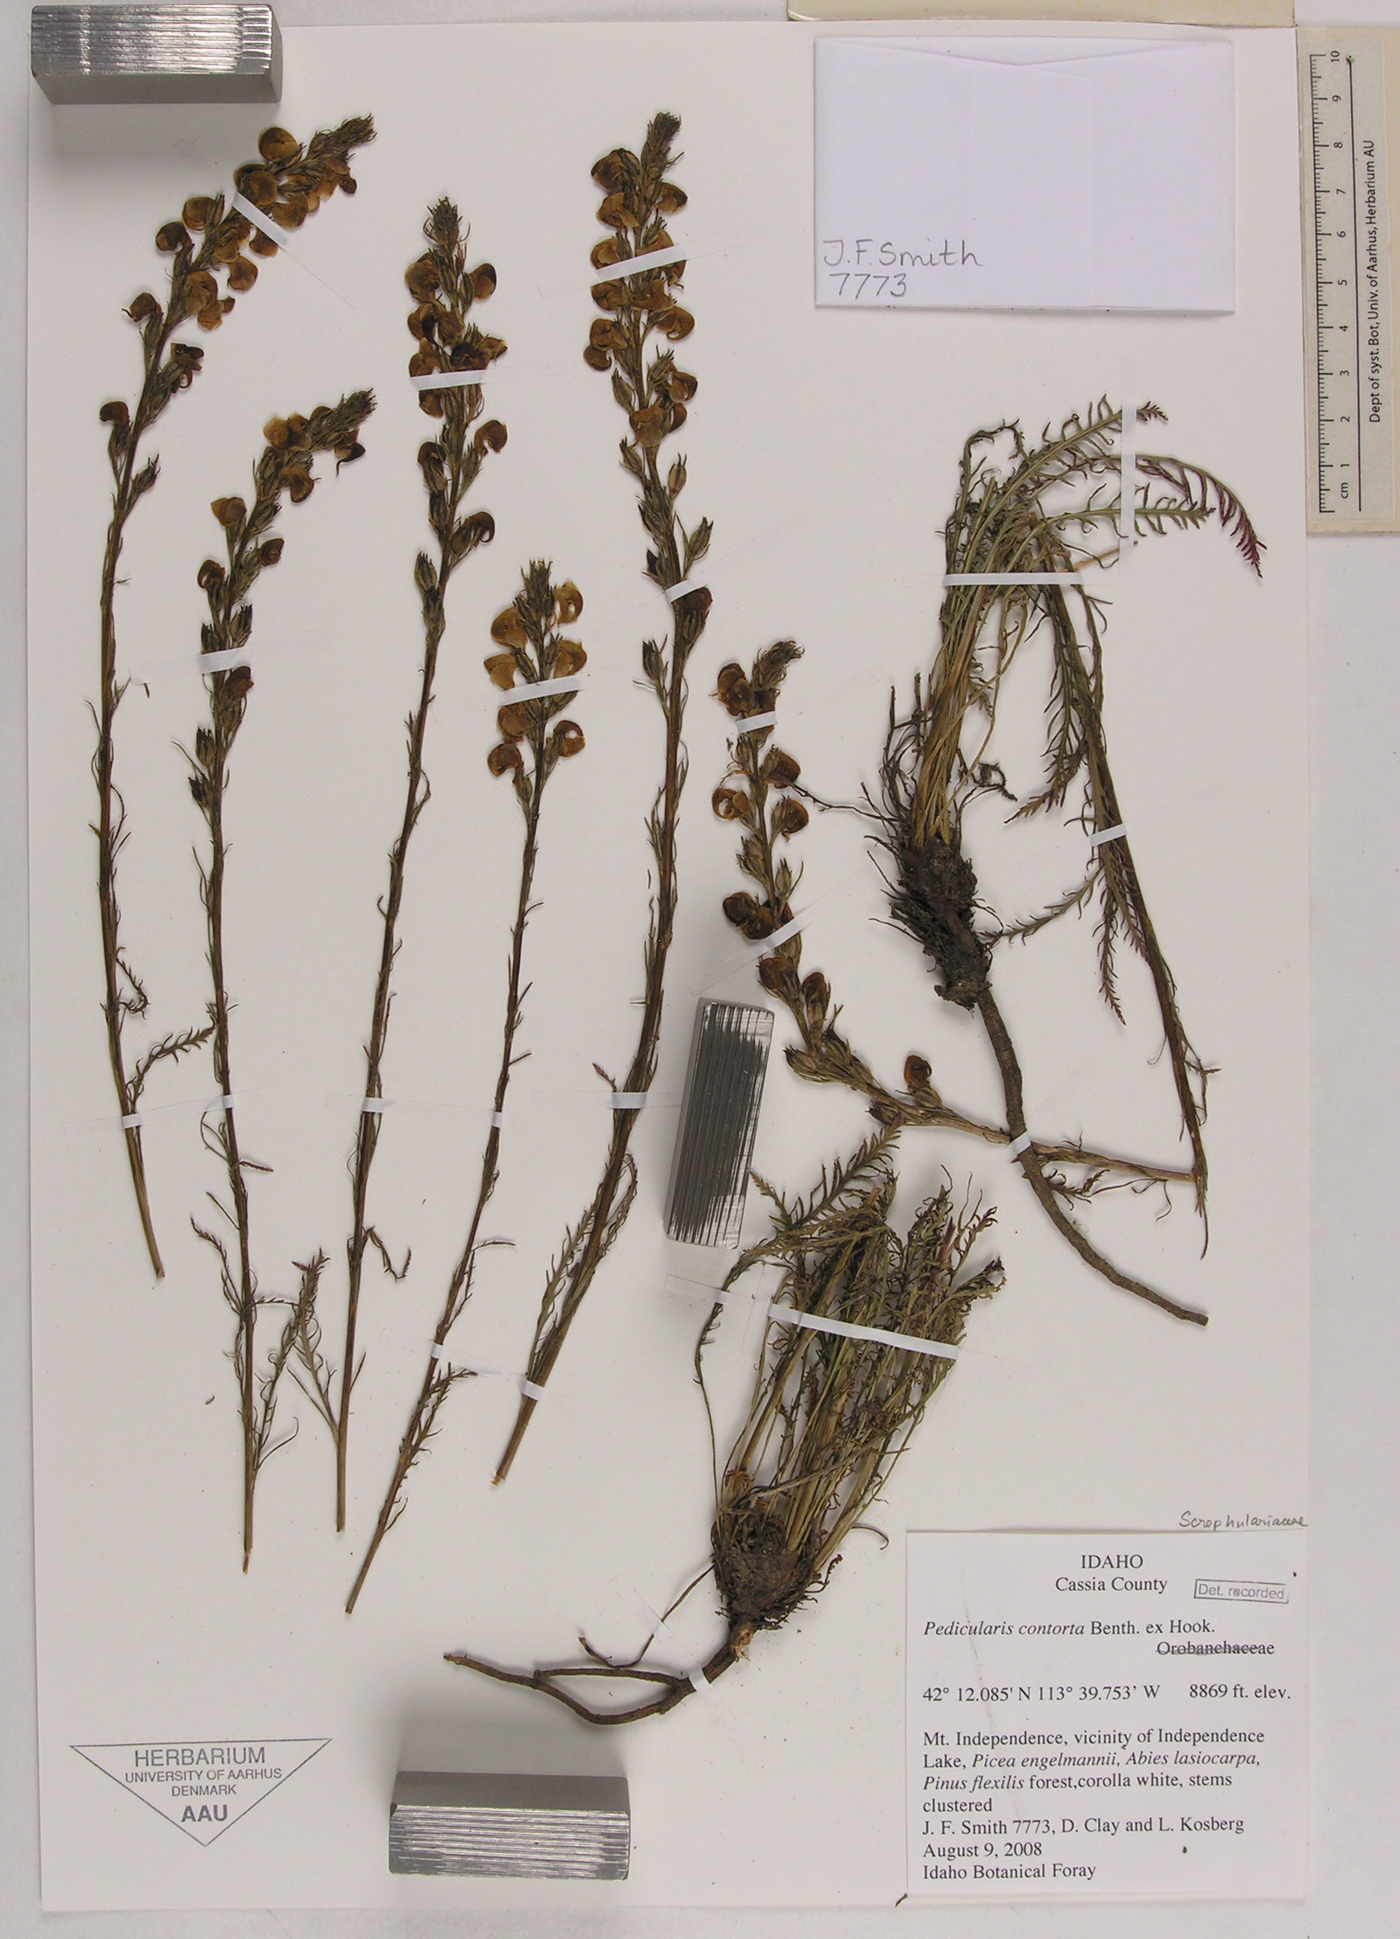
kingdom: Plantae
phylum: Tracheophyta
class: Magnoliopsida
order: Lamiales
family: Orobanchaceae
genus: Pedicularis
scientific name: Pedicularis contorta
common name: Coiled lousewort
